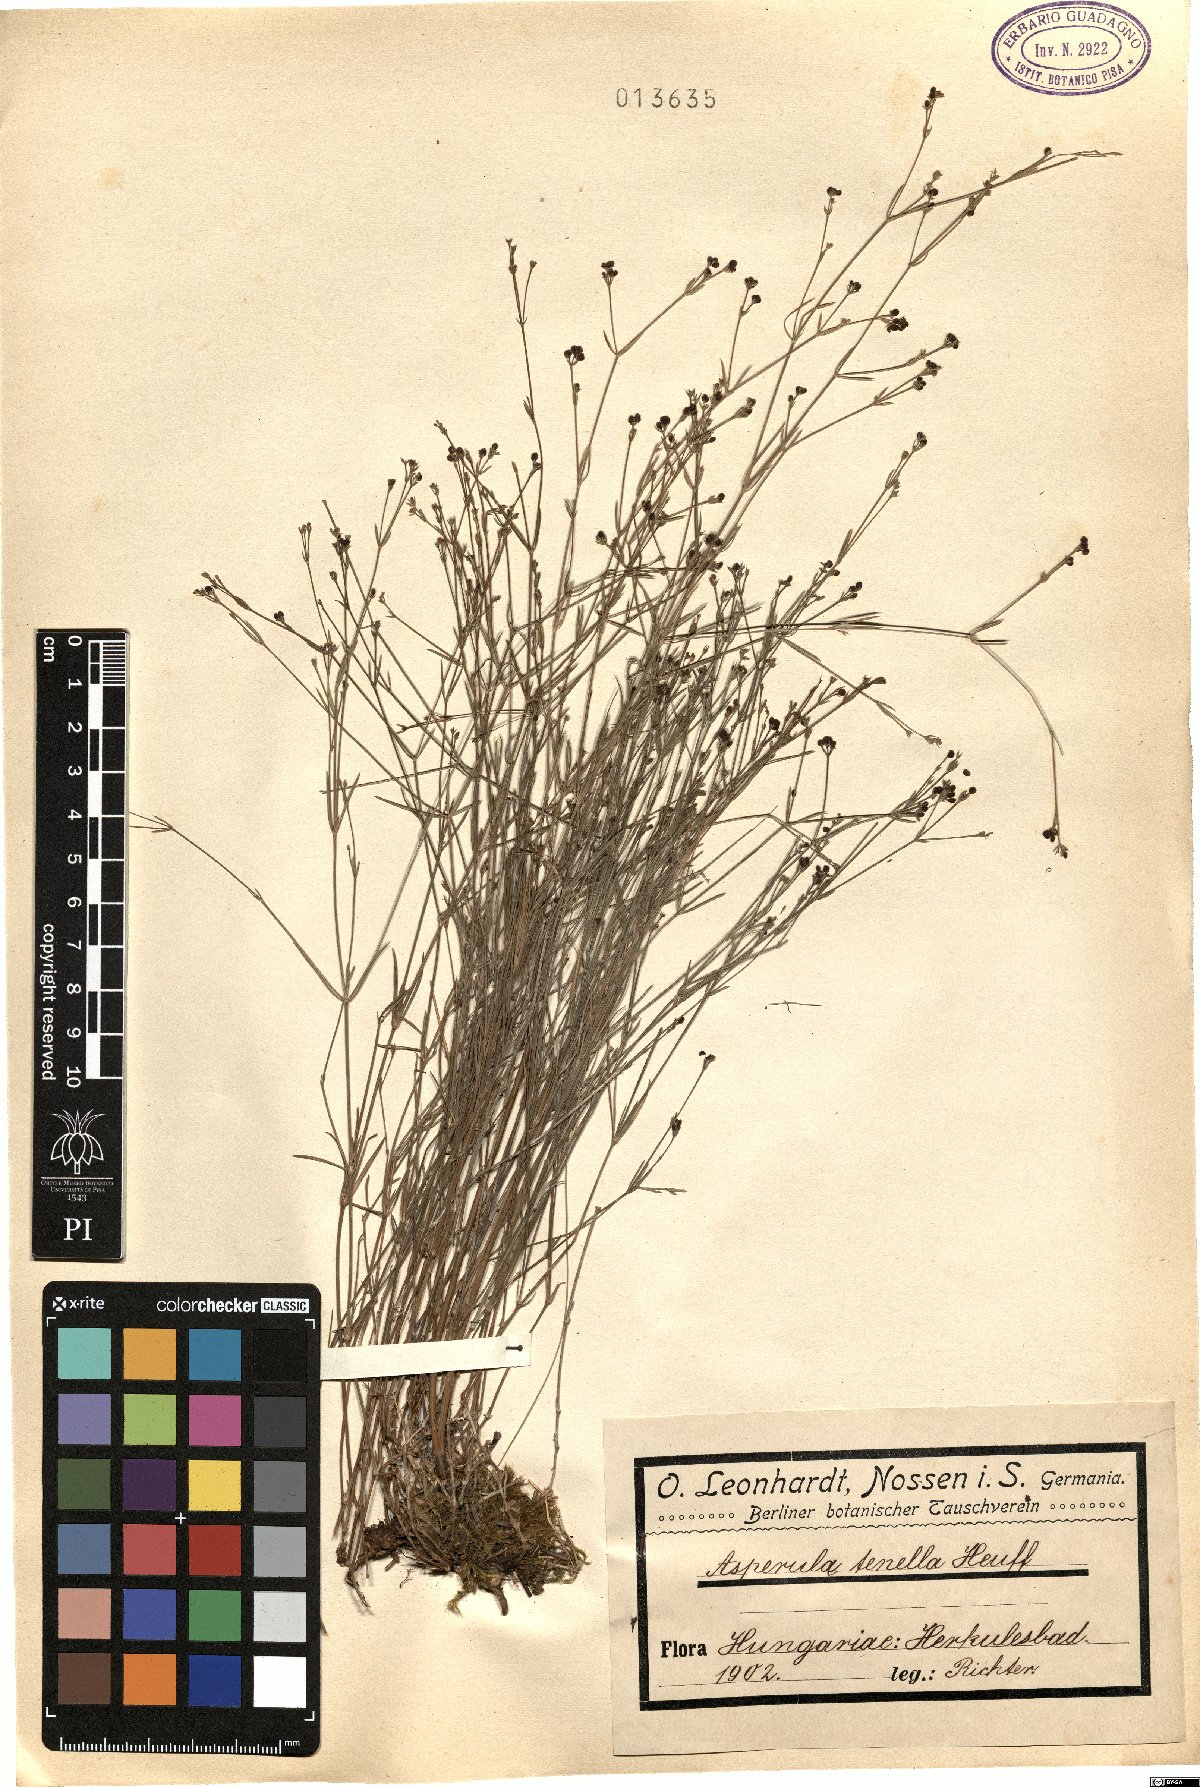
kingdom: Plantae
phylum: Tracheophyta
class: Magnoliopsida
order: Gentianales
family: Rubiaceae
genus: Cynanchica
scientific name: Cynanchica tenella
